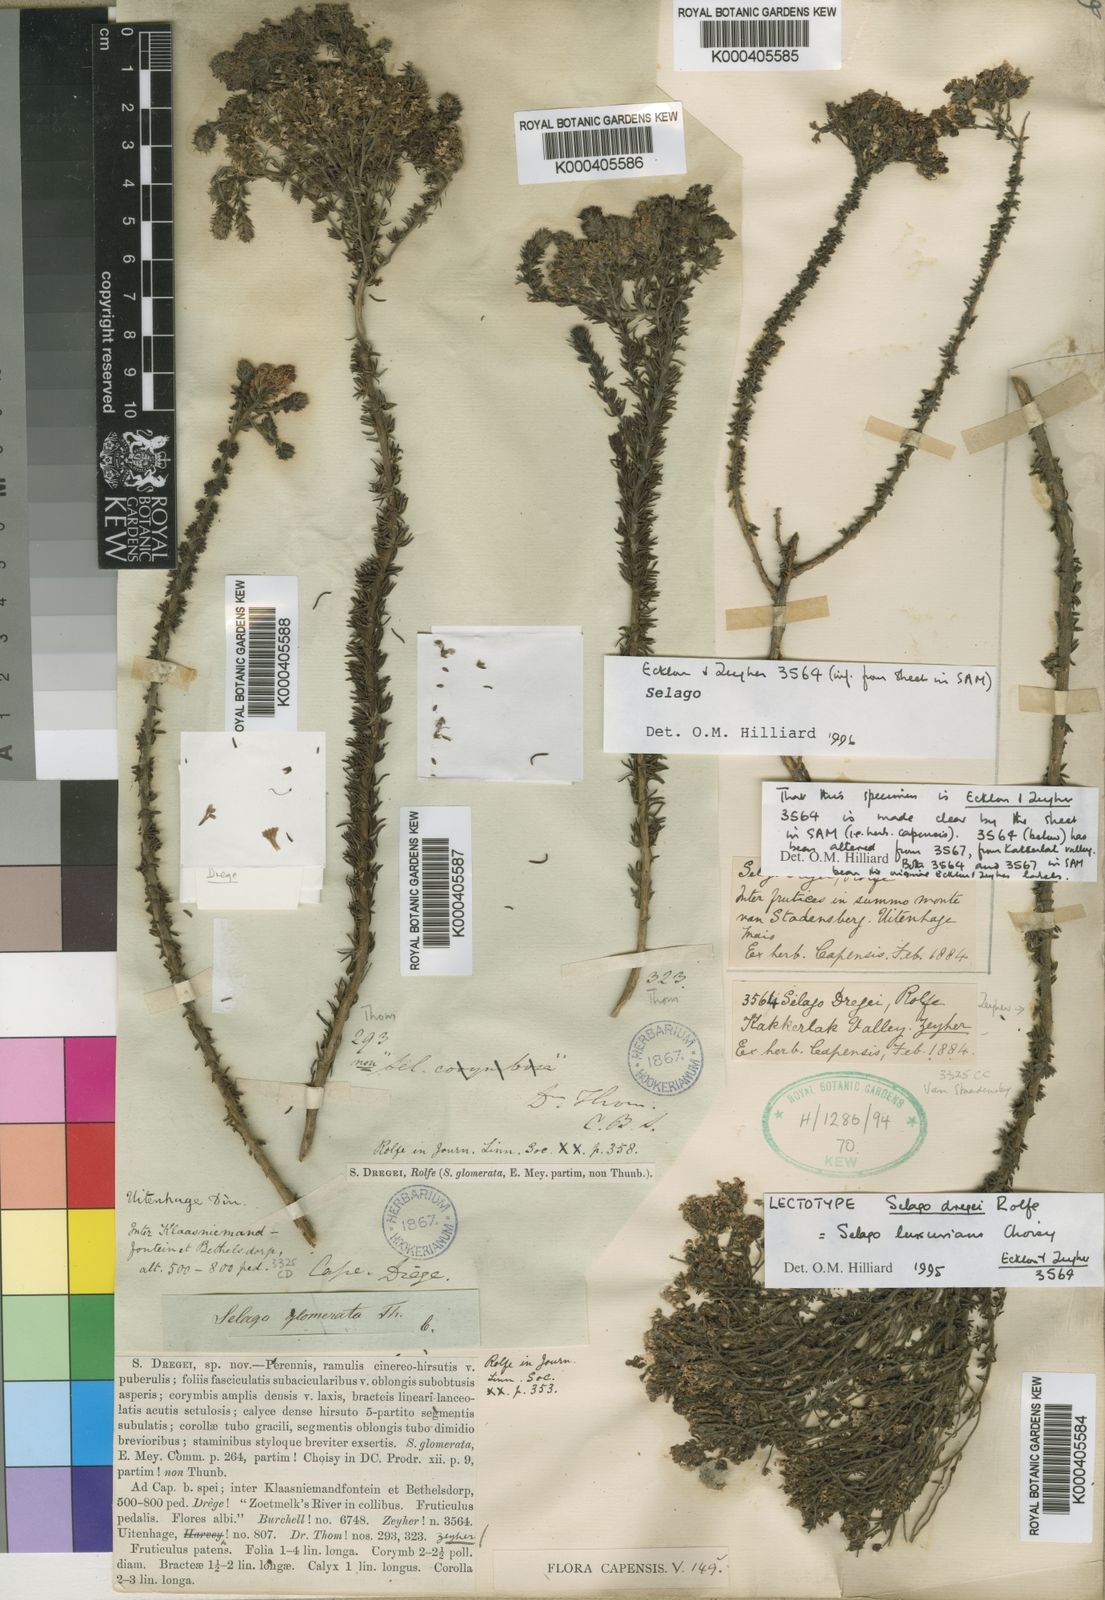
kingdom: Plantae
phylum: Tracheophyta
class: Magnoliopsida
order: Lamiales
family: Scrophulariaceae
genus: Selago
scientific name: Selago luxurians
